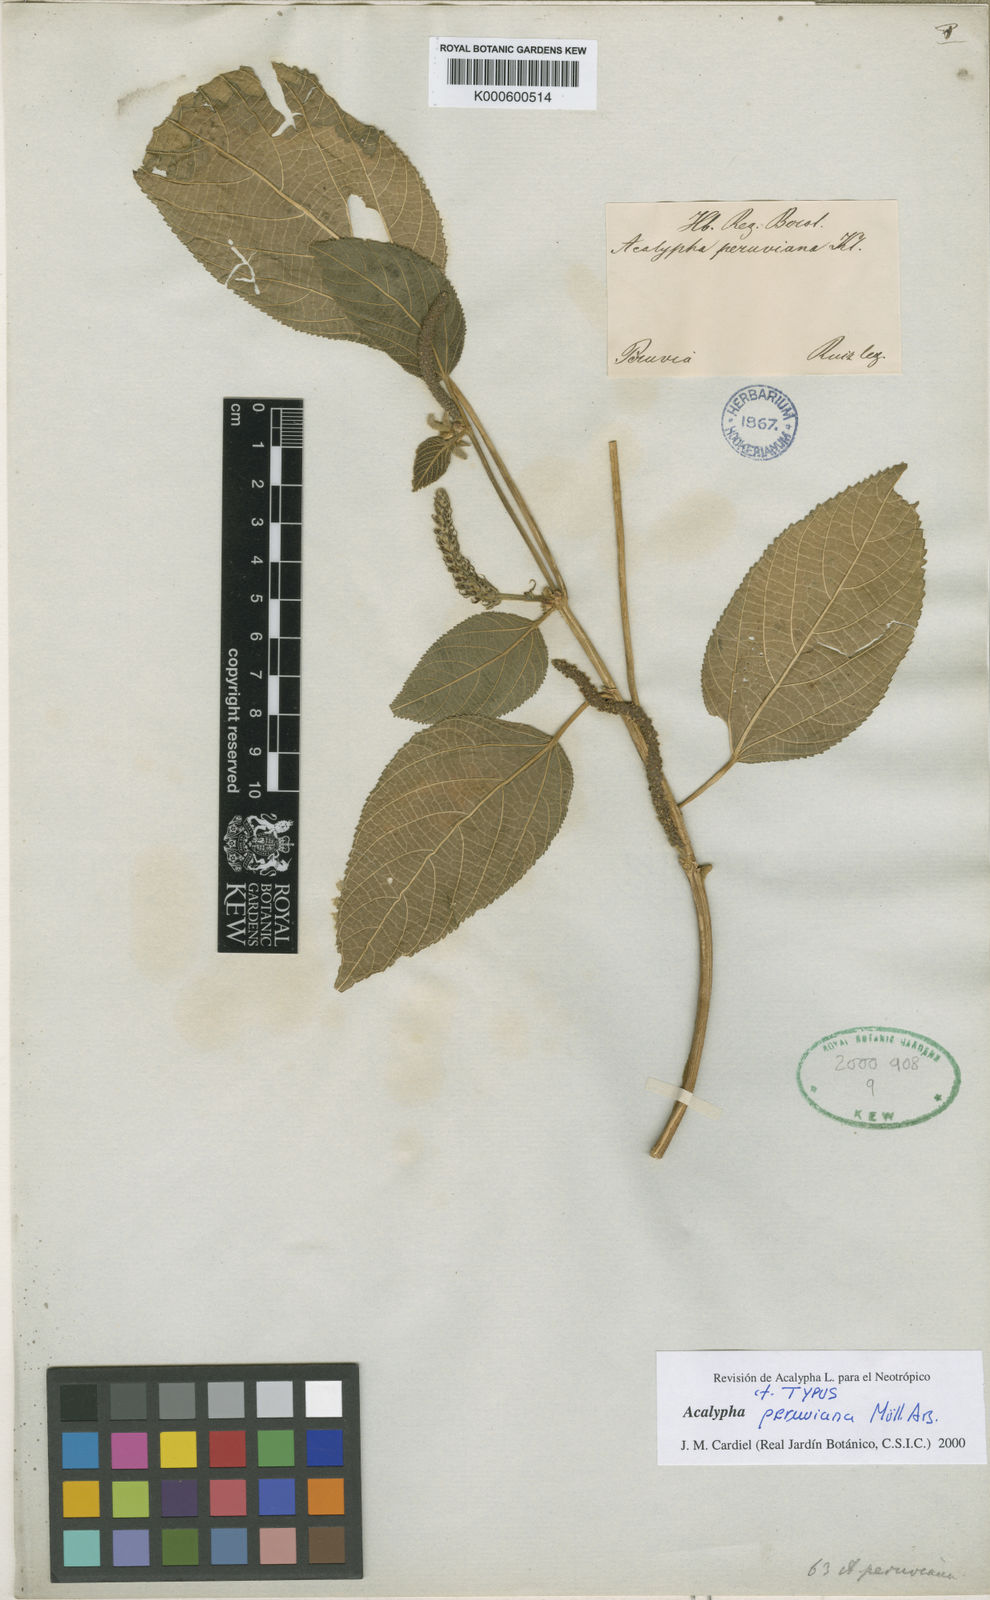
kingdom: Plantae
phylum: Tracheophyta
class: Magnoliopsida
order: Malpighiales
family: Euphorbiaceae
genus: Acalypha
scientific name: Acalypha
